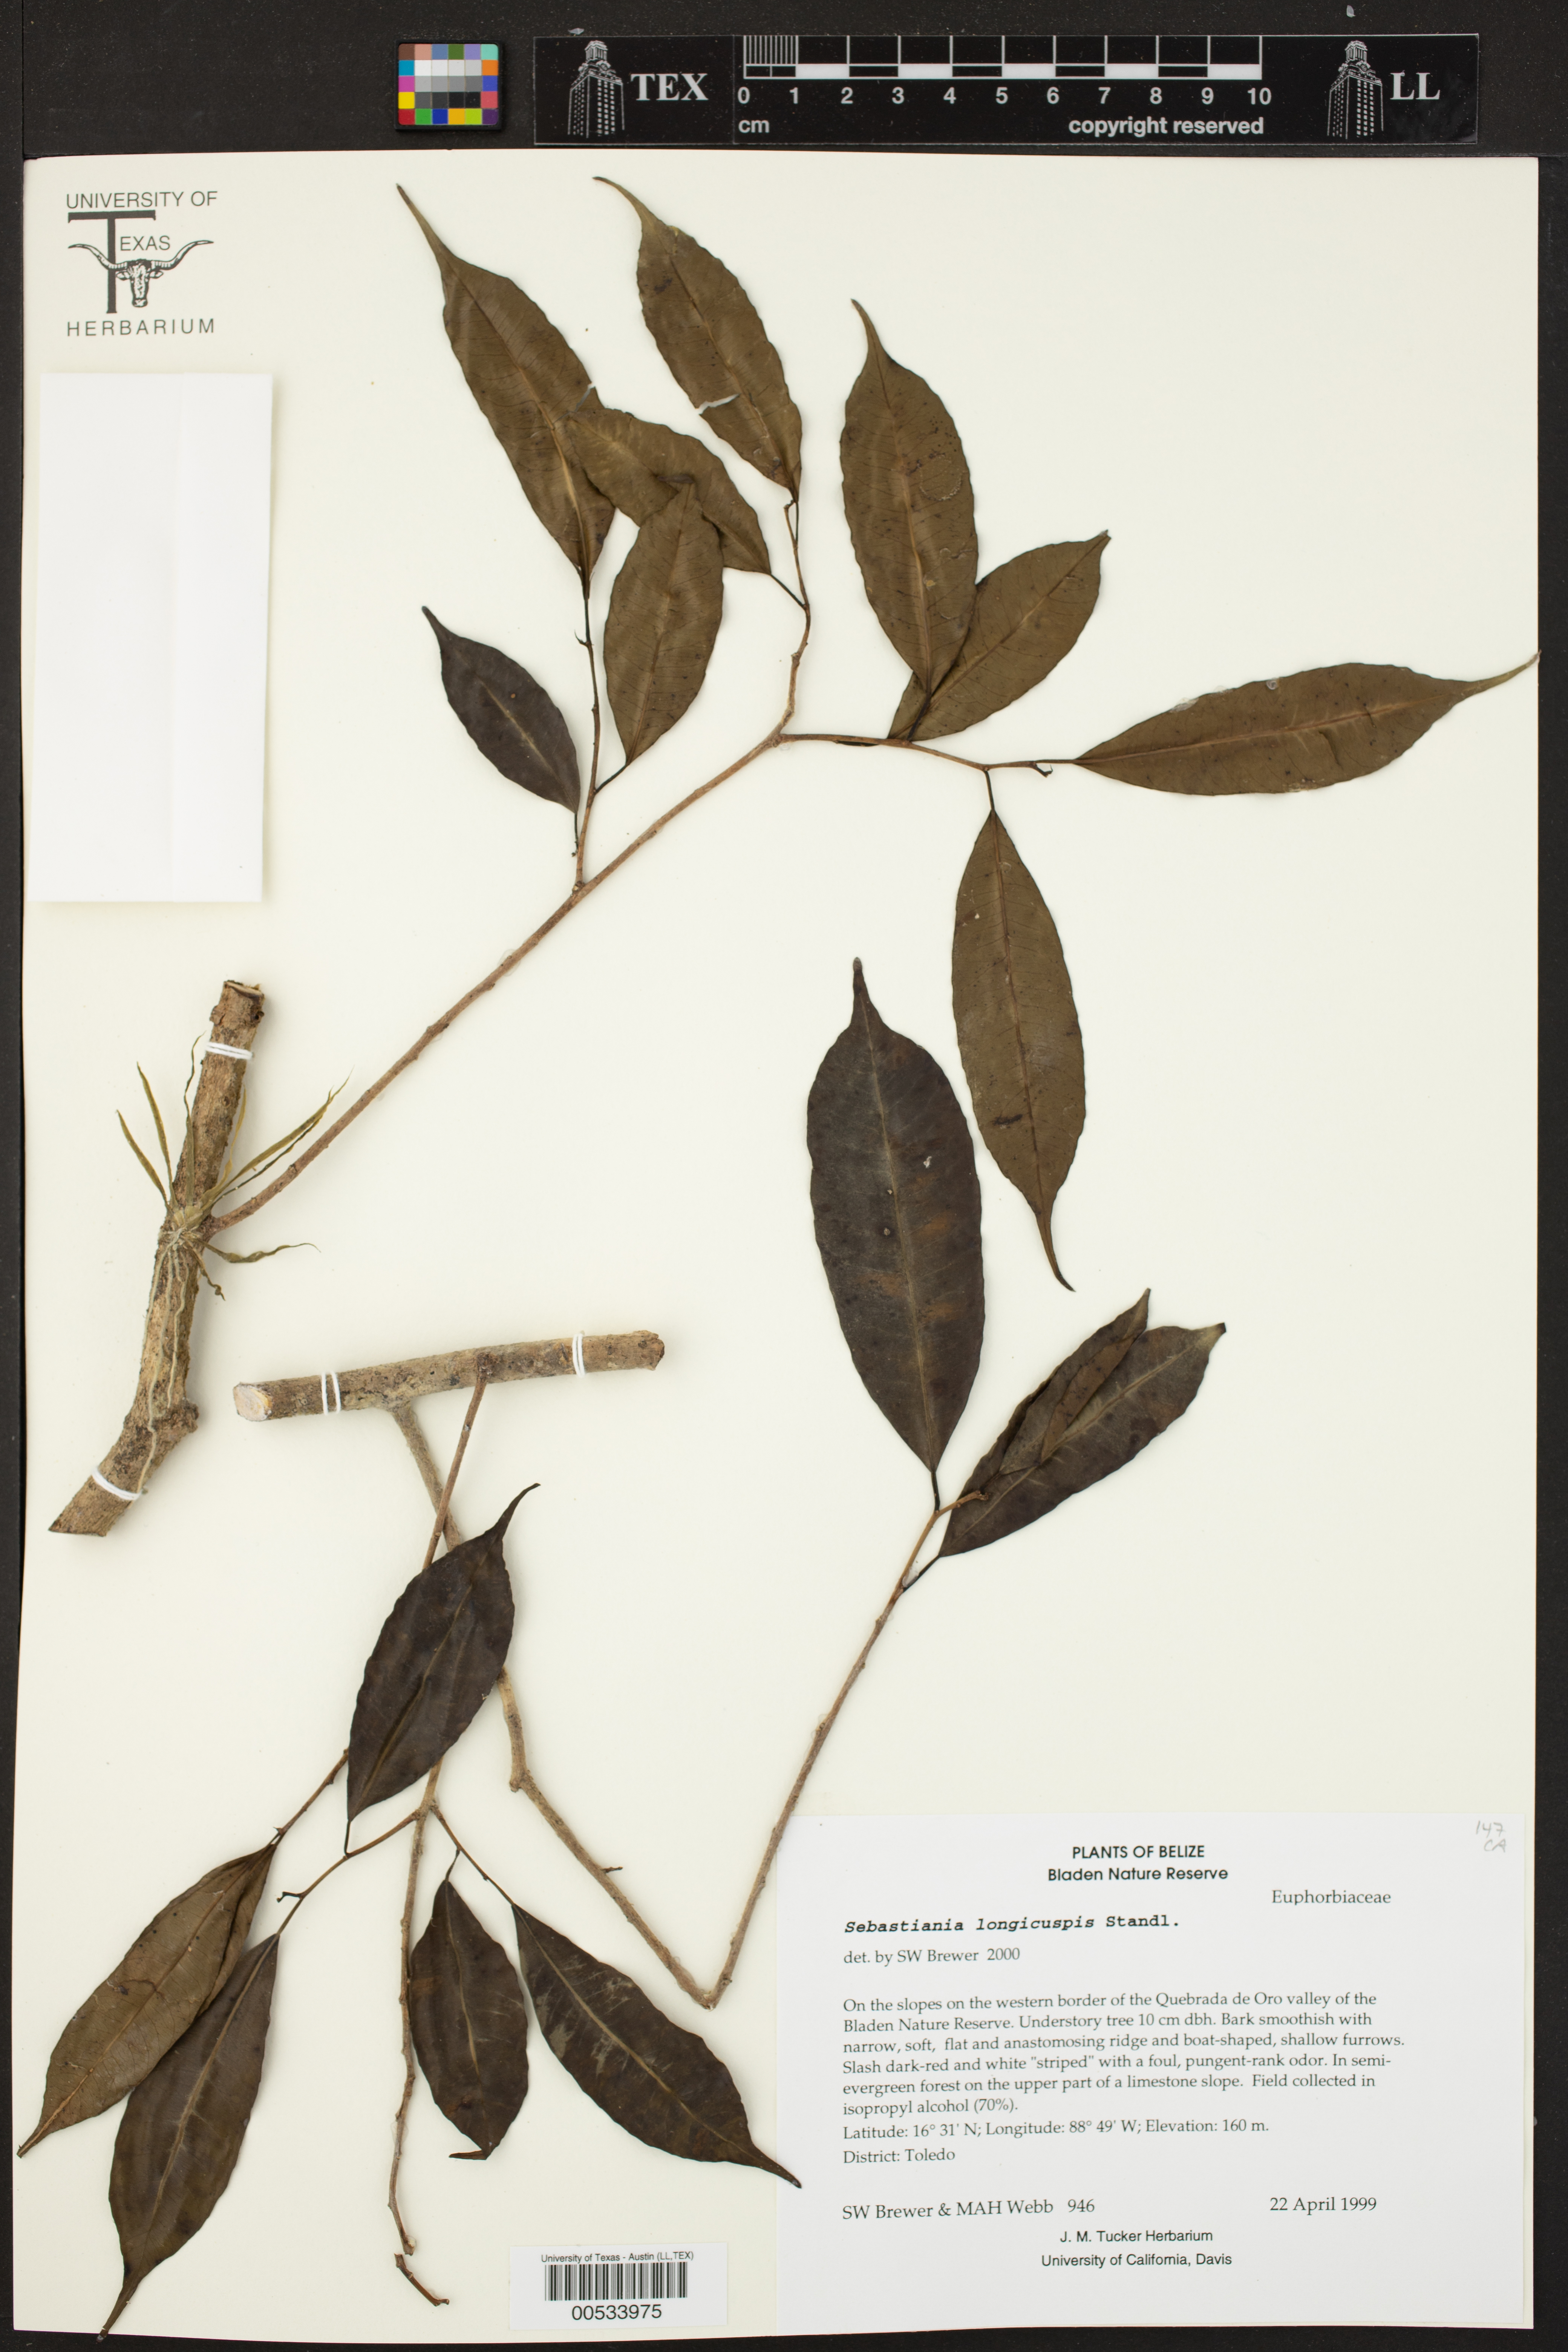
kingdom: Plantae
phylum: Tracheophyta
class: Magnoliopsida
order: Malpighiales
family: Euphorbiaceae
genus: Pleradenophora
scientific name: Pleradenophora tuerckheimiana
